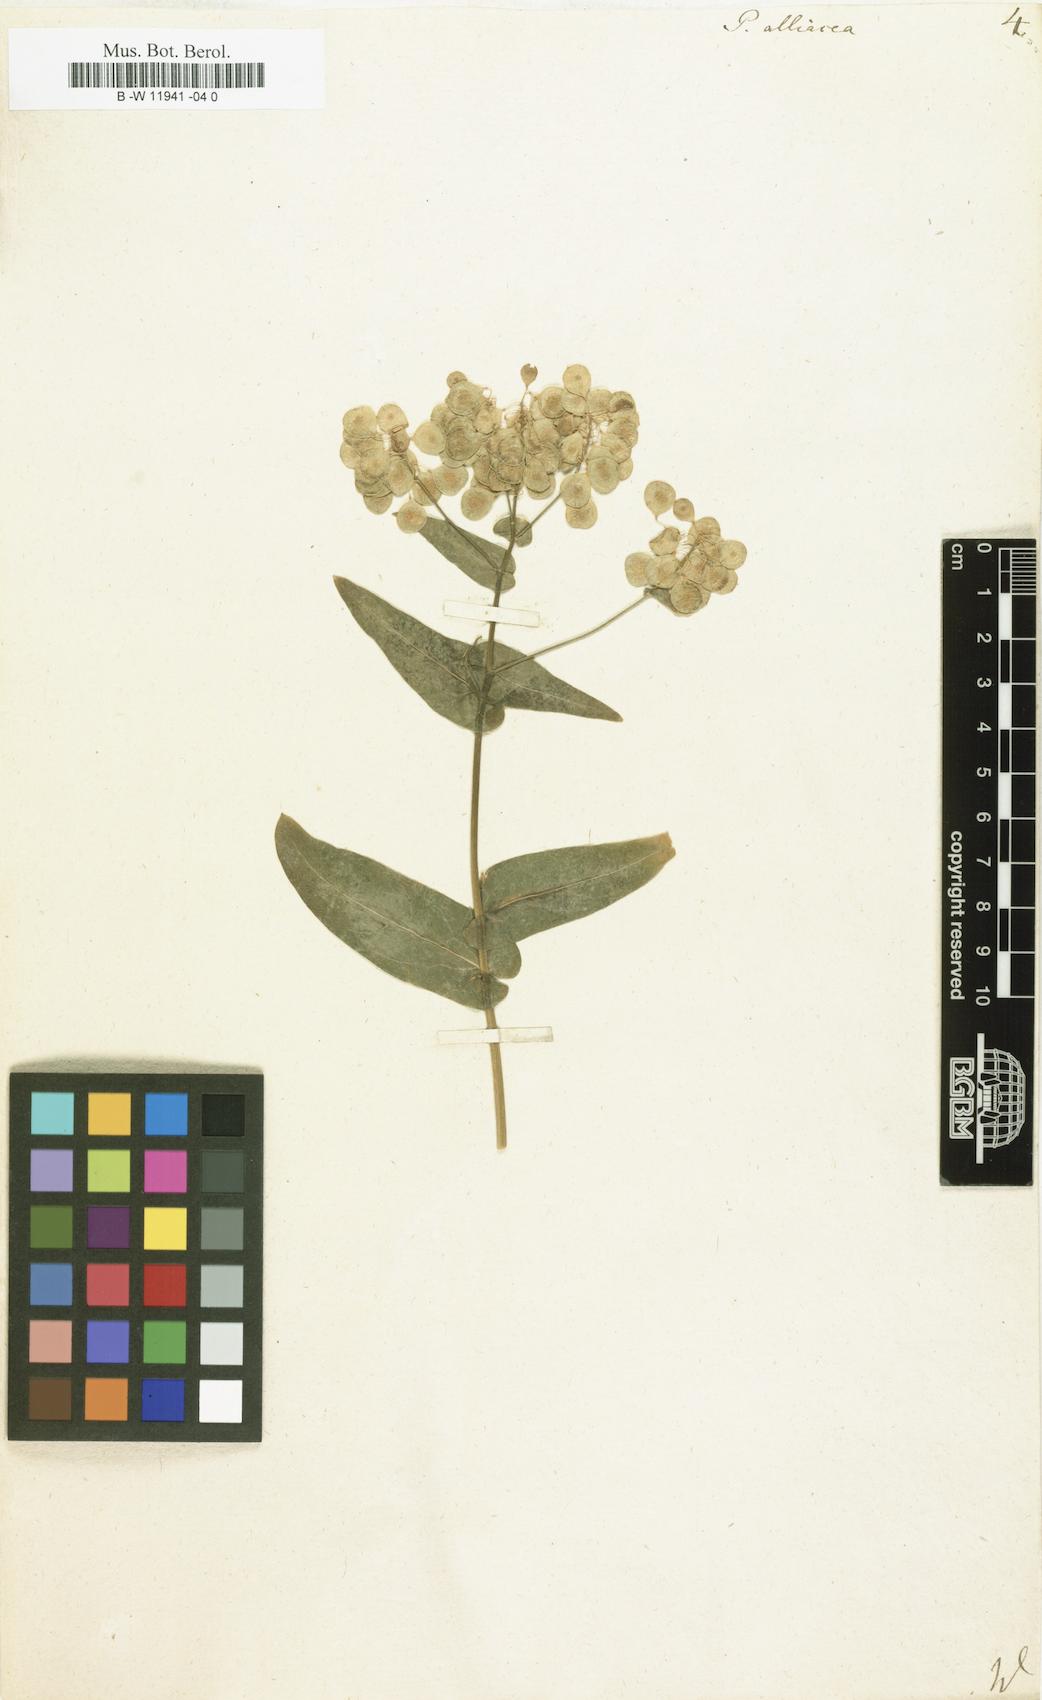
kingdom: Plantae
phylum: Tracheophyta
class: Magnoliopsida
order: Brassicales
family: Brassicaceae
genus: Peltaria
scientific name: Peltaria alliacea
